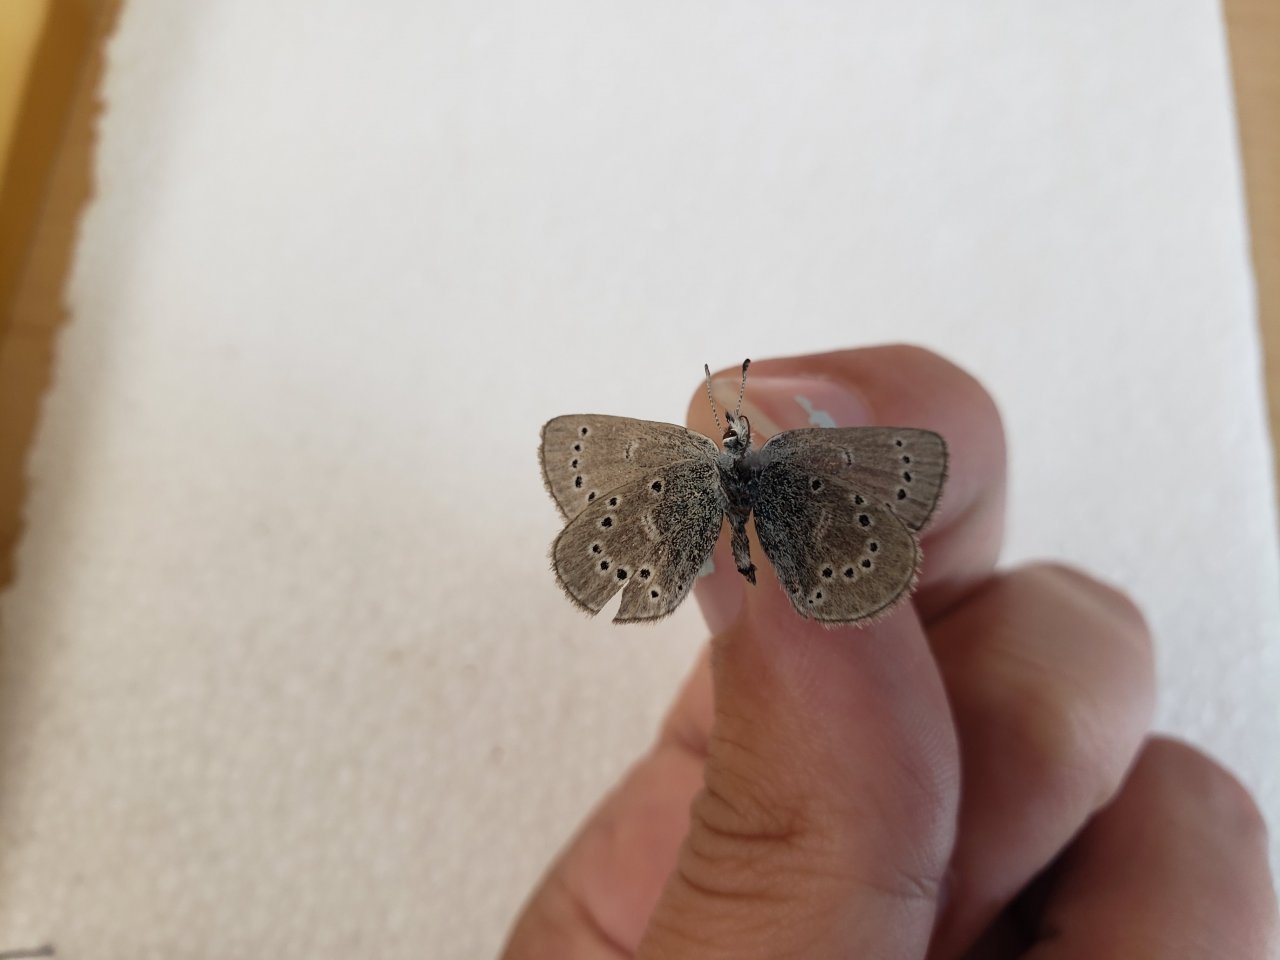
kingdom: Animalia
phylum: Arthropoda
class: Insecta
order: Lepidoptera
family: Lycaenidae
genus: Glaucopsyche
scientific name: Glaucopsyche lygdamus
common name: Silvery Blue
